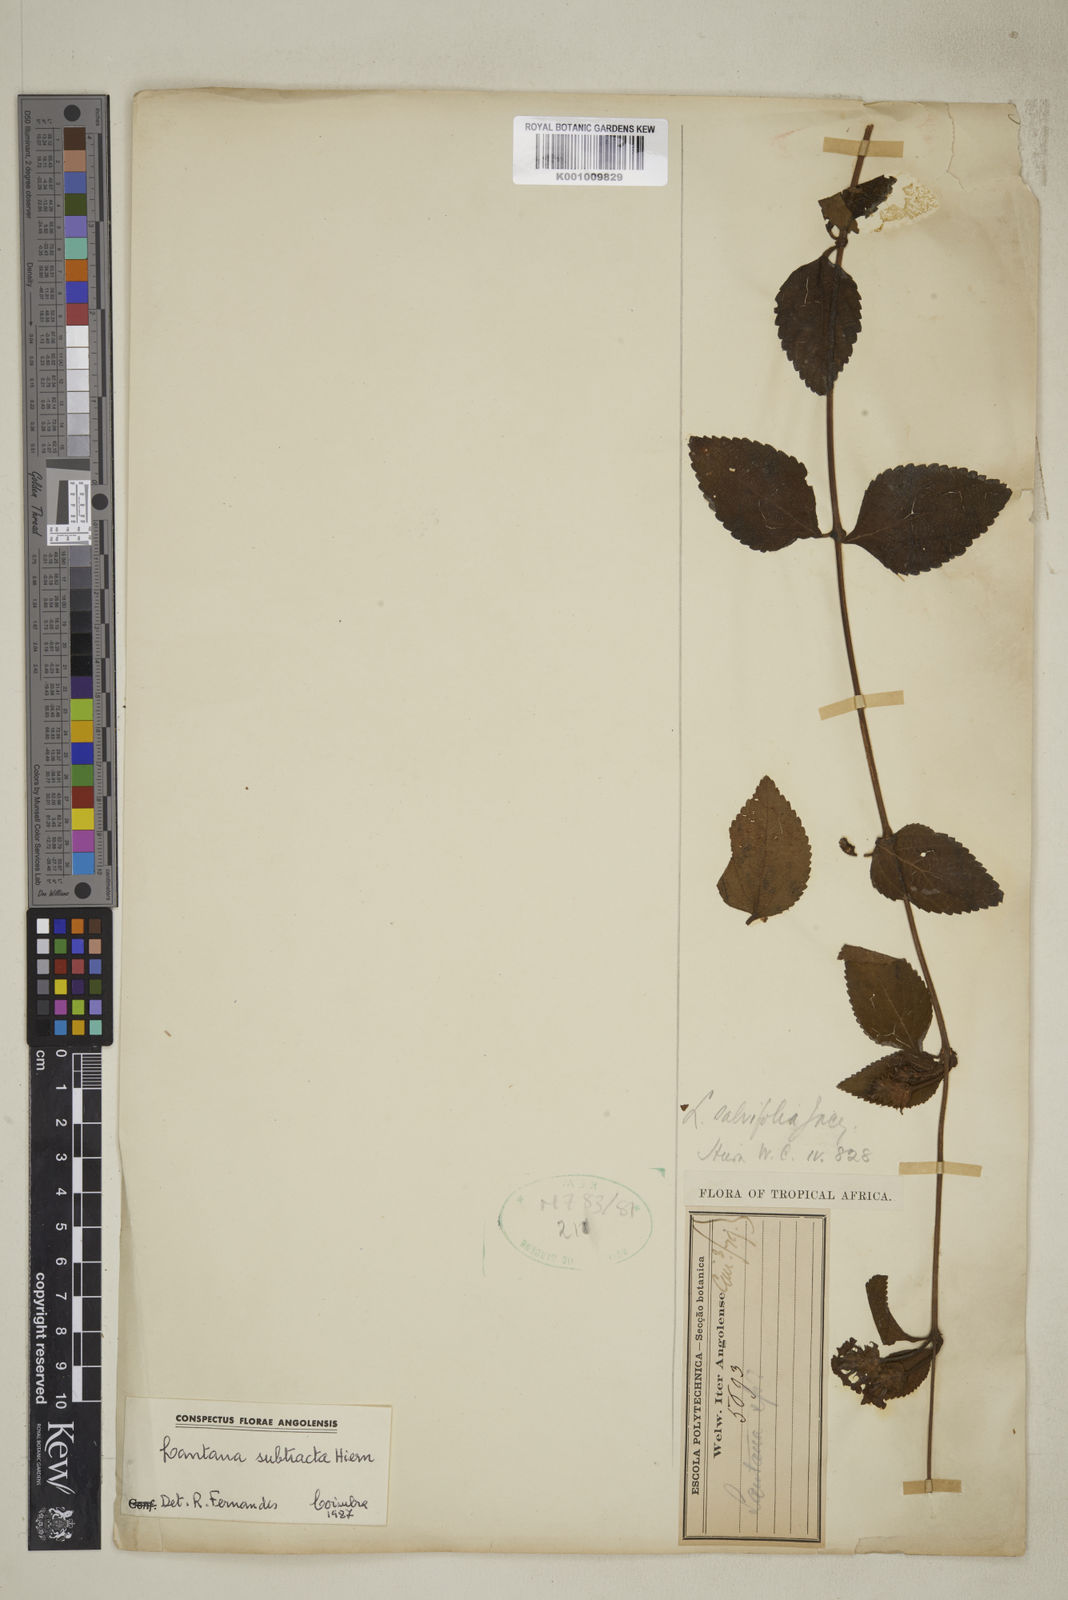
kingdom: Plantae
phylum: Tracheophyta
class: Magnoliopsida
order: Lamiales
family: Verbenaceae
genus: Lantana
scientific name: Lantana subtracta
